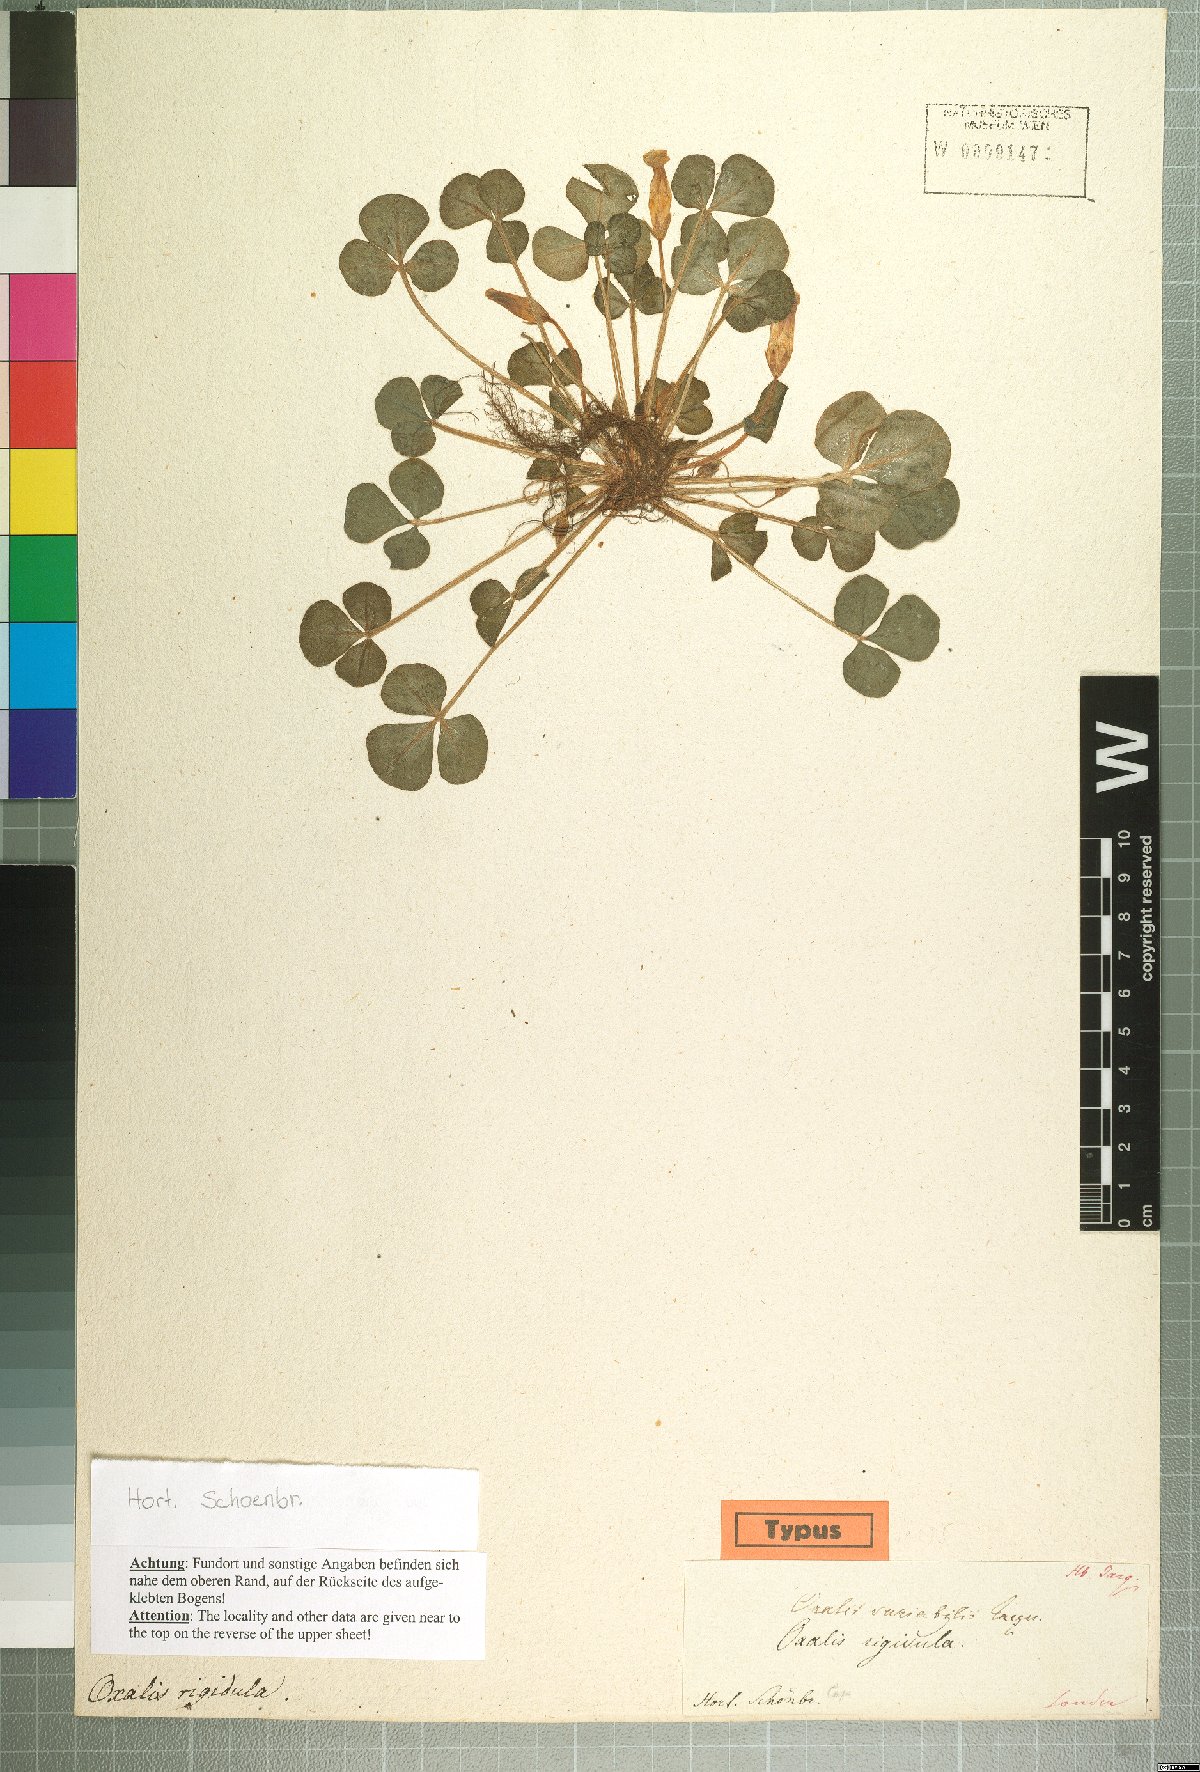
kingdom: Plantae
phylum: Tracheophyta
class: Magnoliopsida
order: Oxalidales
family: Oxalidaceae
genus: Oxalis
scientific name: Oxalis purpurea
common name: Purple woodsorrel
